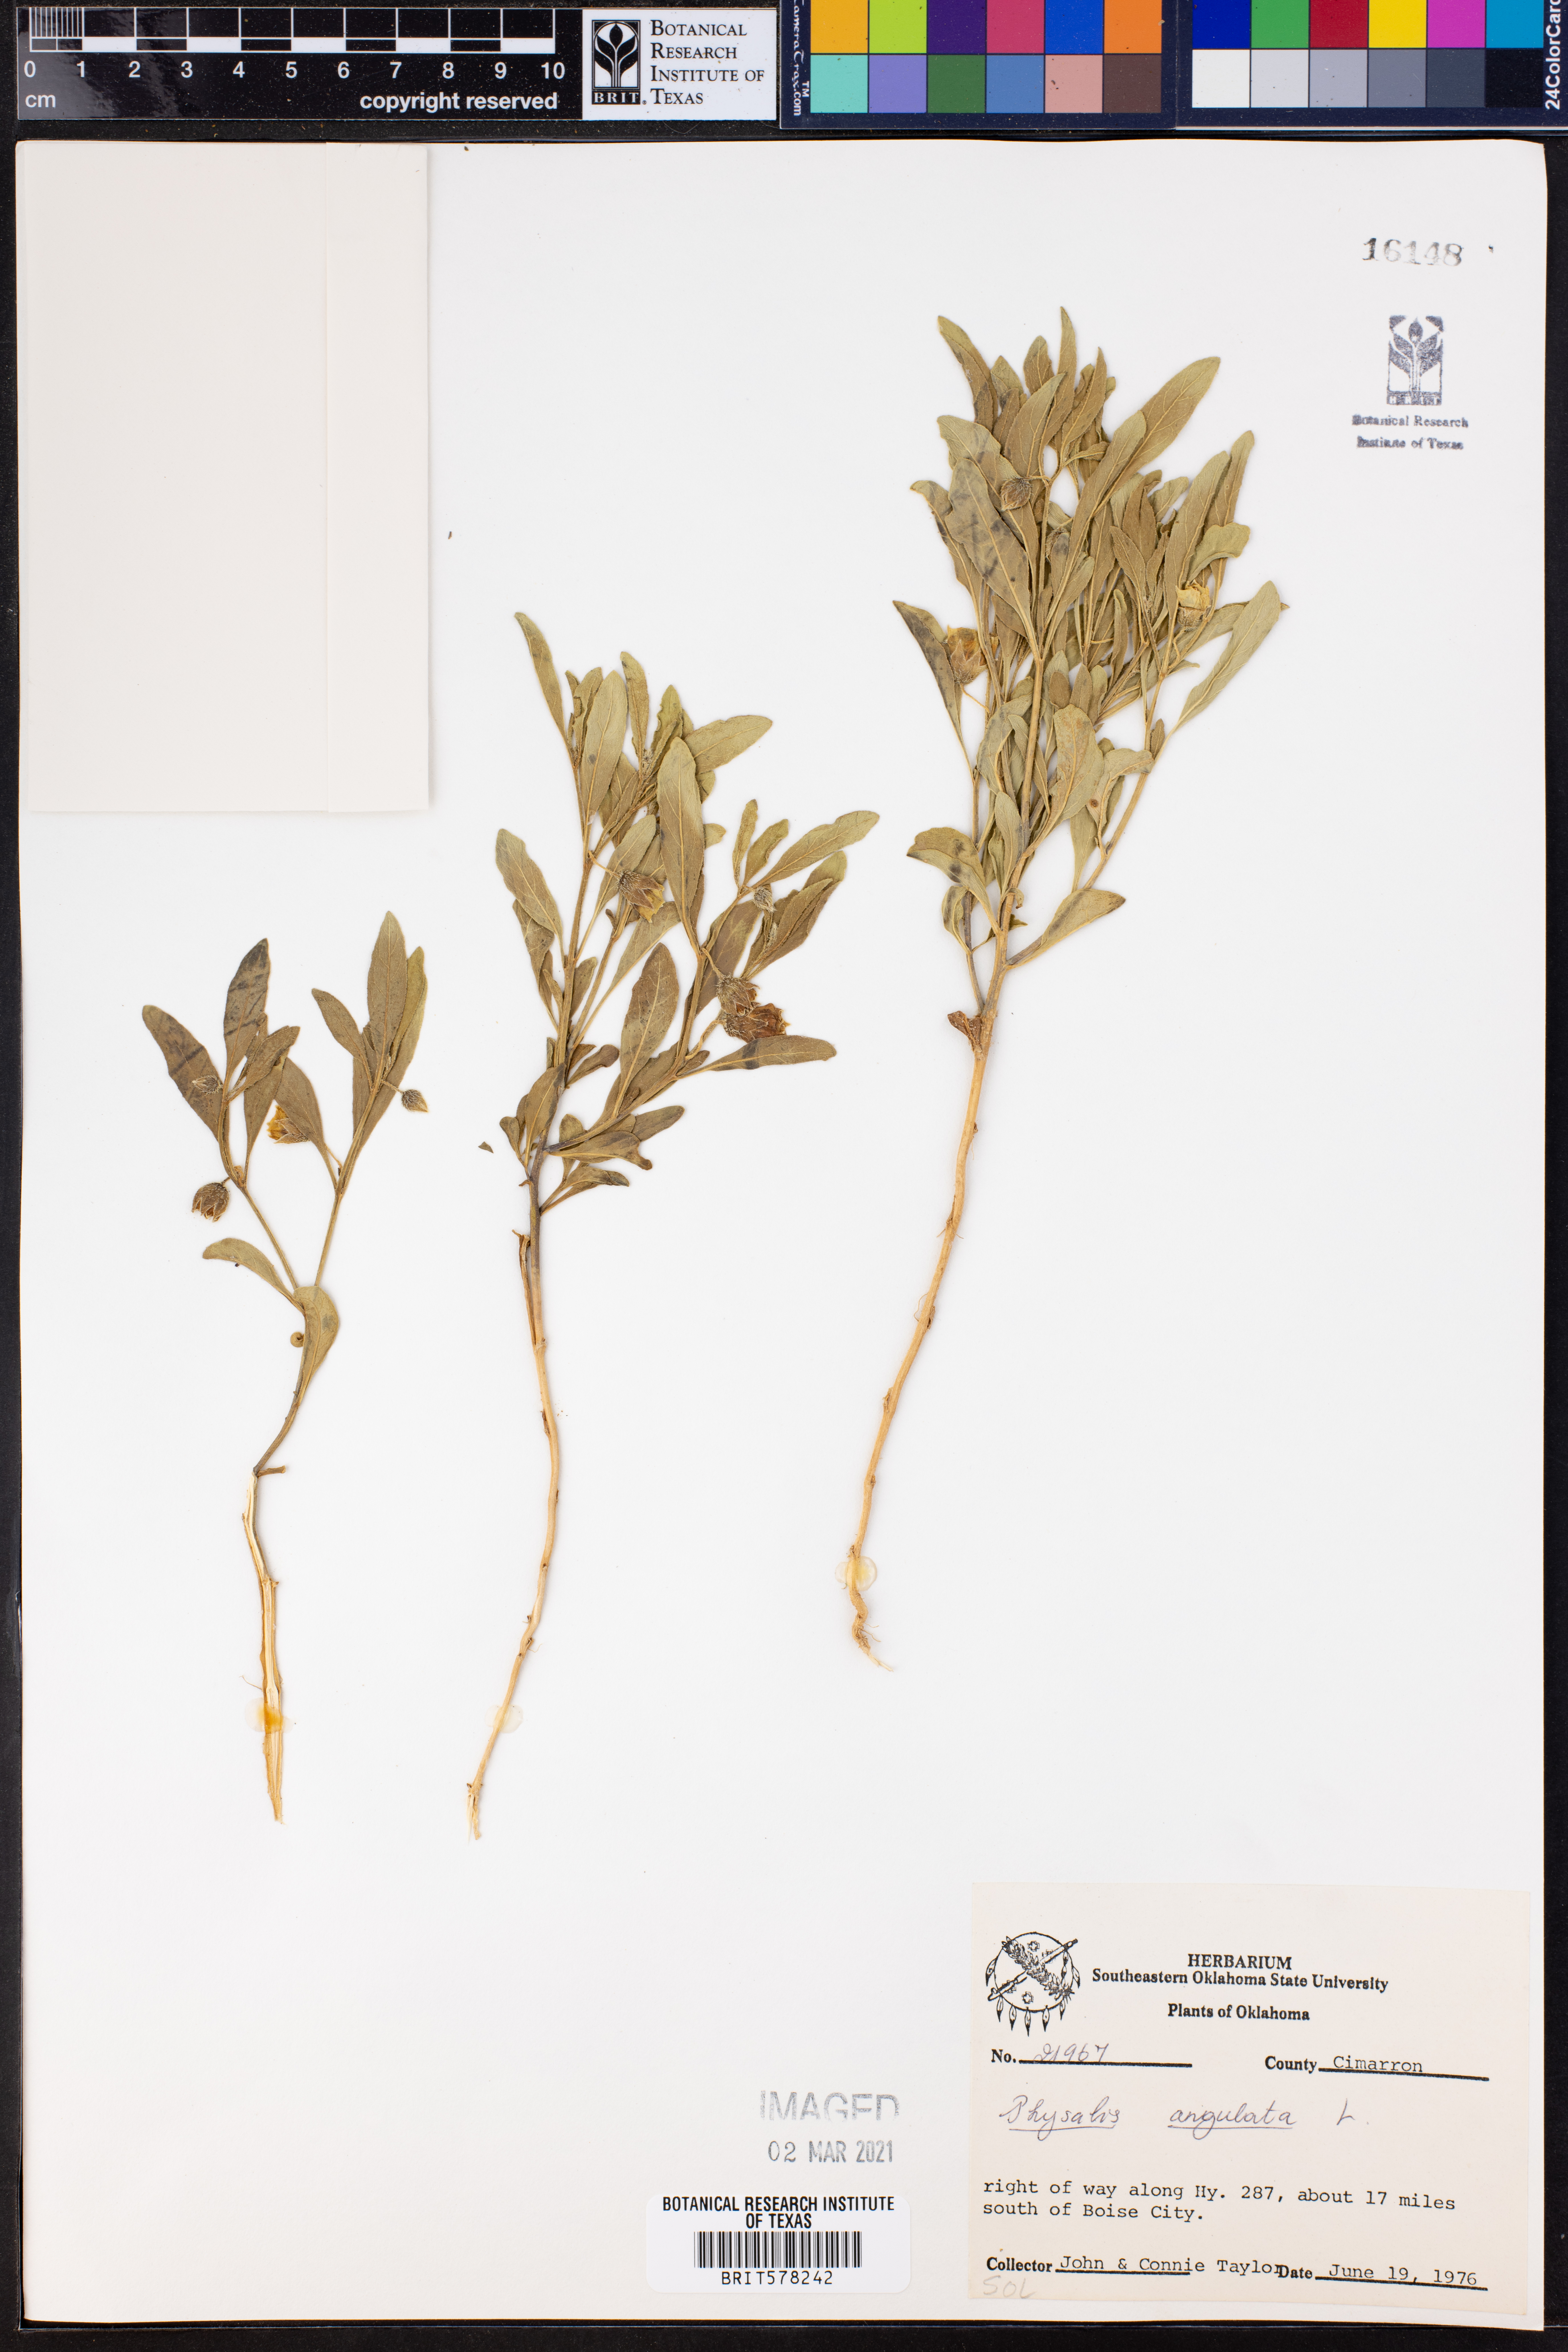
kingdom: Plantae
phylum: Tracheophyta
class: Magnoliopsida
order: Solanales
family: Solanaceae
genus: Physalis
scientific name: Physalis angulata
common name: Angular winter-cherry
